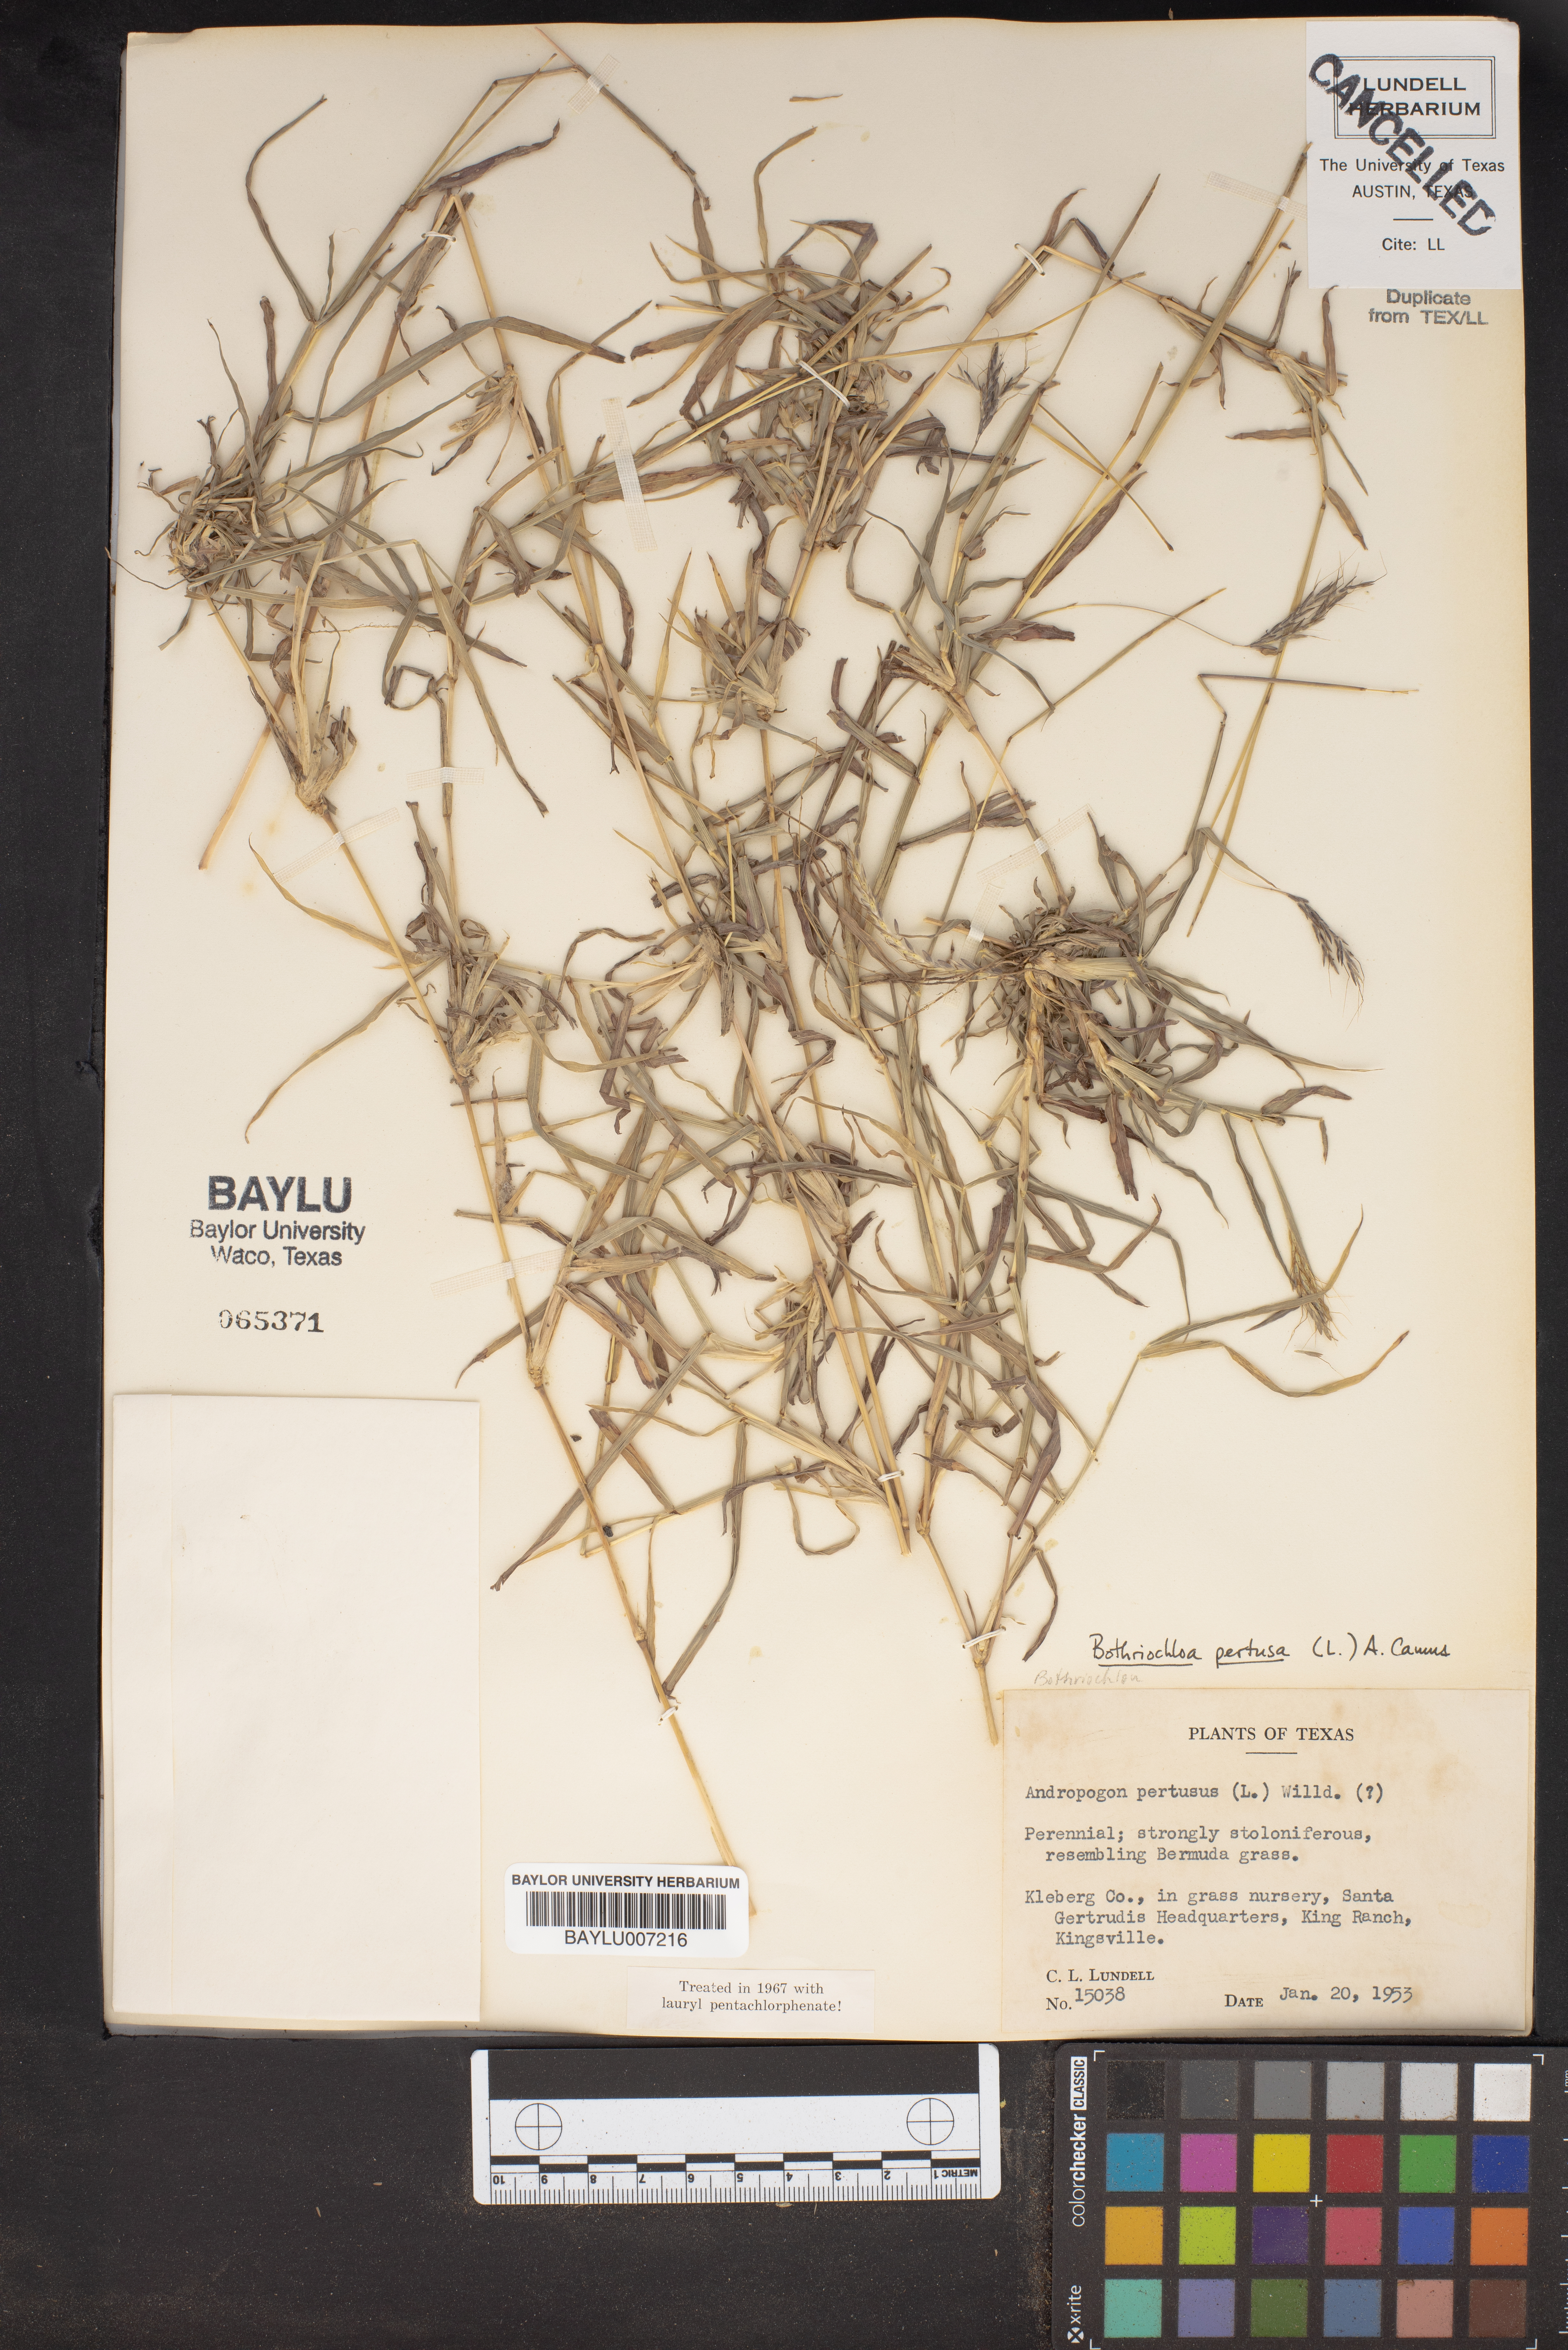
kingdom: Plantae
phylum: Tracheophyta
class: Liliopsida
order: Poales
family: Poaceae
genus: Bothriochloa
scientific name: Bothriochloa pertusa
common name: Pitted beardgrass
